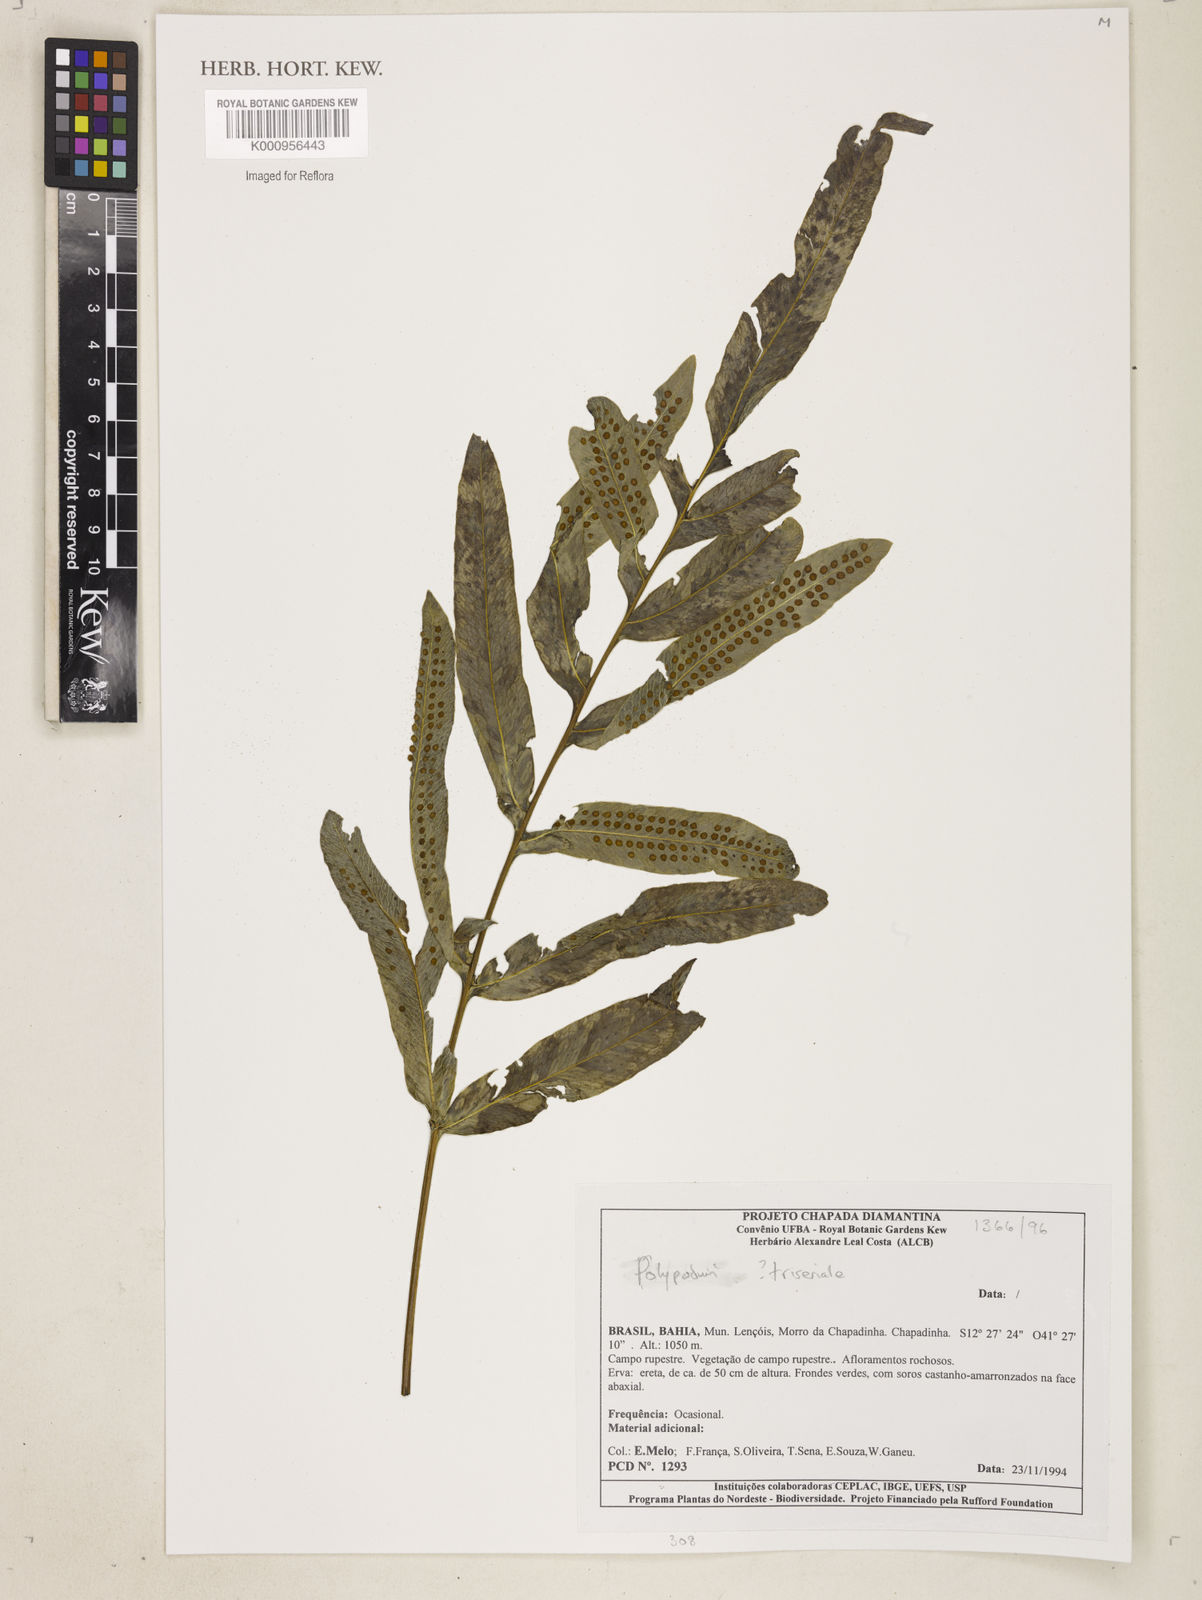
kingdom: Plantae
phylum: Tracheophyta
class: Polypodiopsida
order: Polypodiales
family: Polypodiaceae
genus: Polypodium
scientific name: Polypodium
